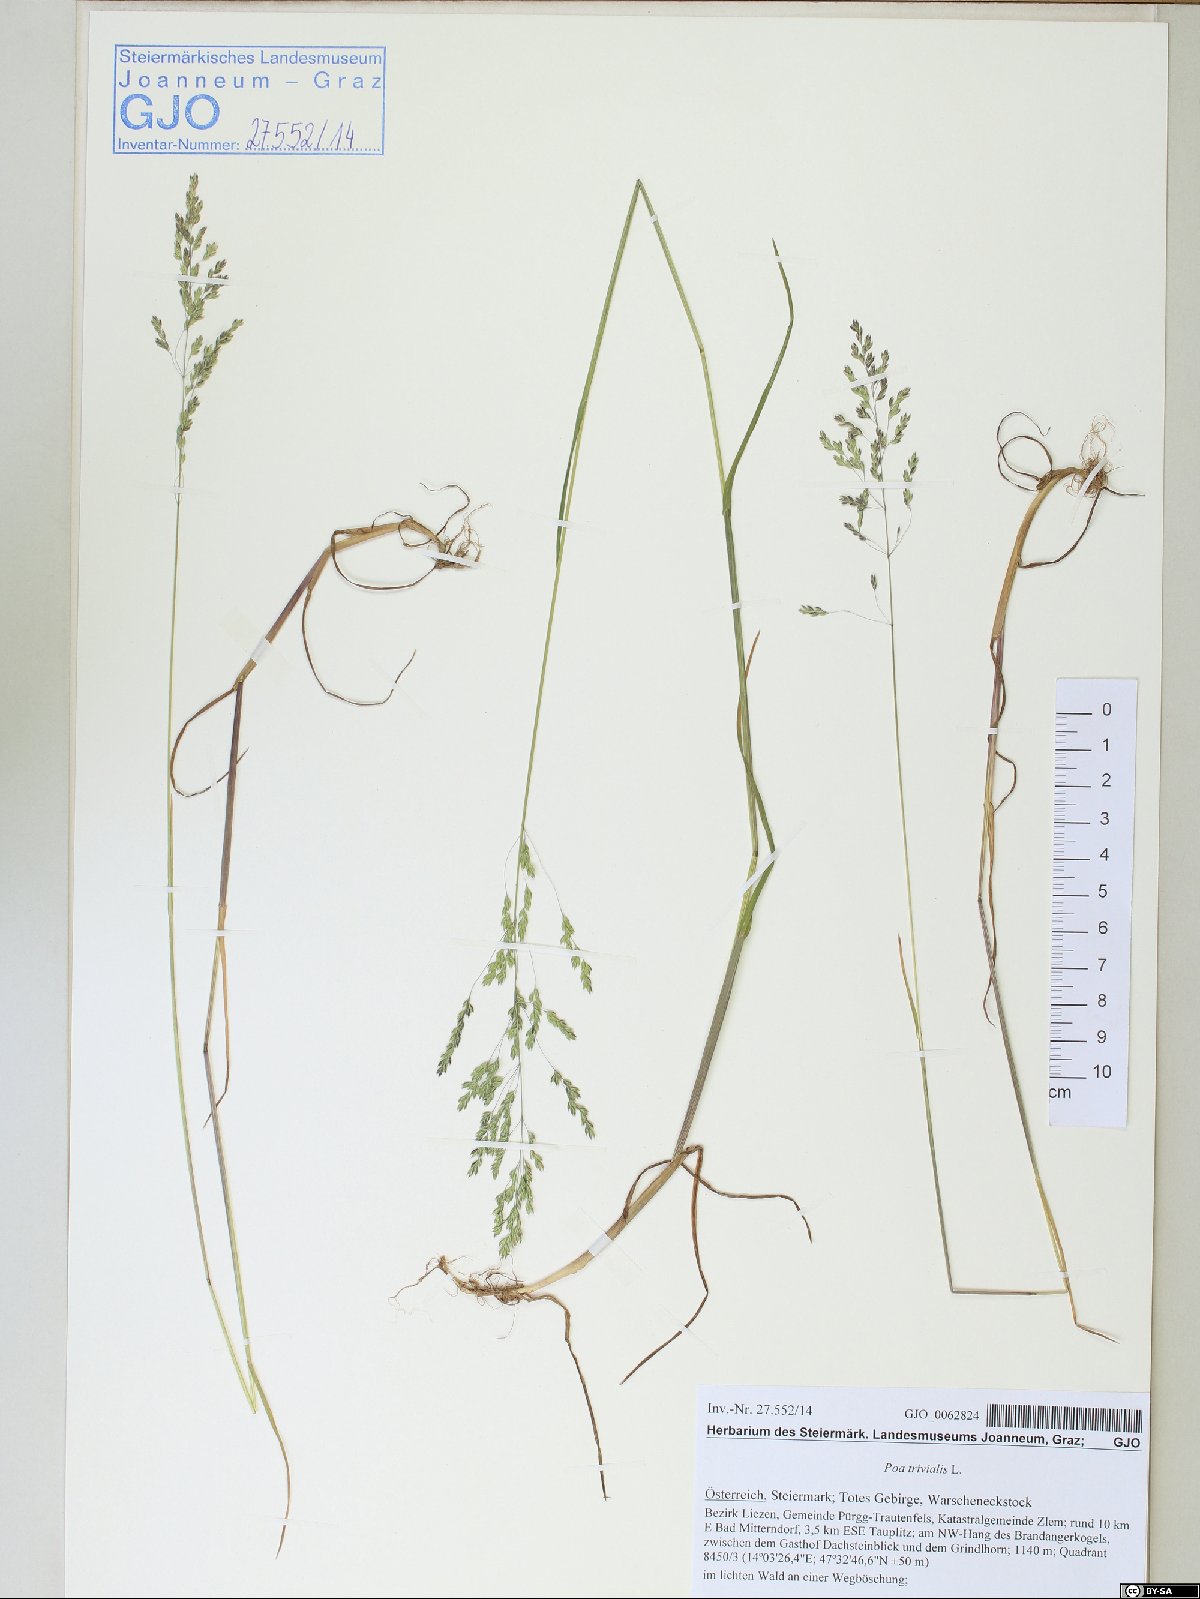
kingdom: Plantae
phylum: Tracheophyta
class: Liliopsida
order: Poales
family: Poaceae
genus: Poa
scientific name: Poa trivialis
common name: Rough bluegrass
